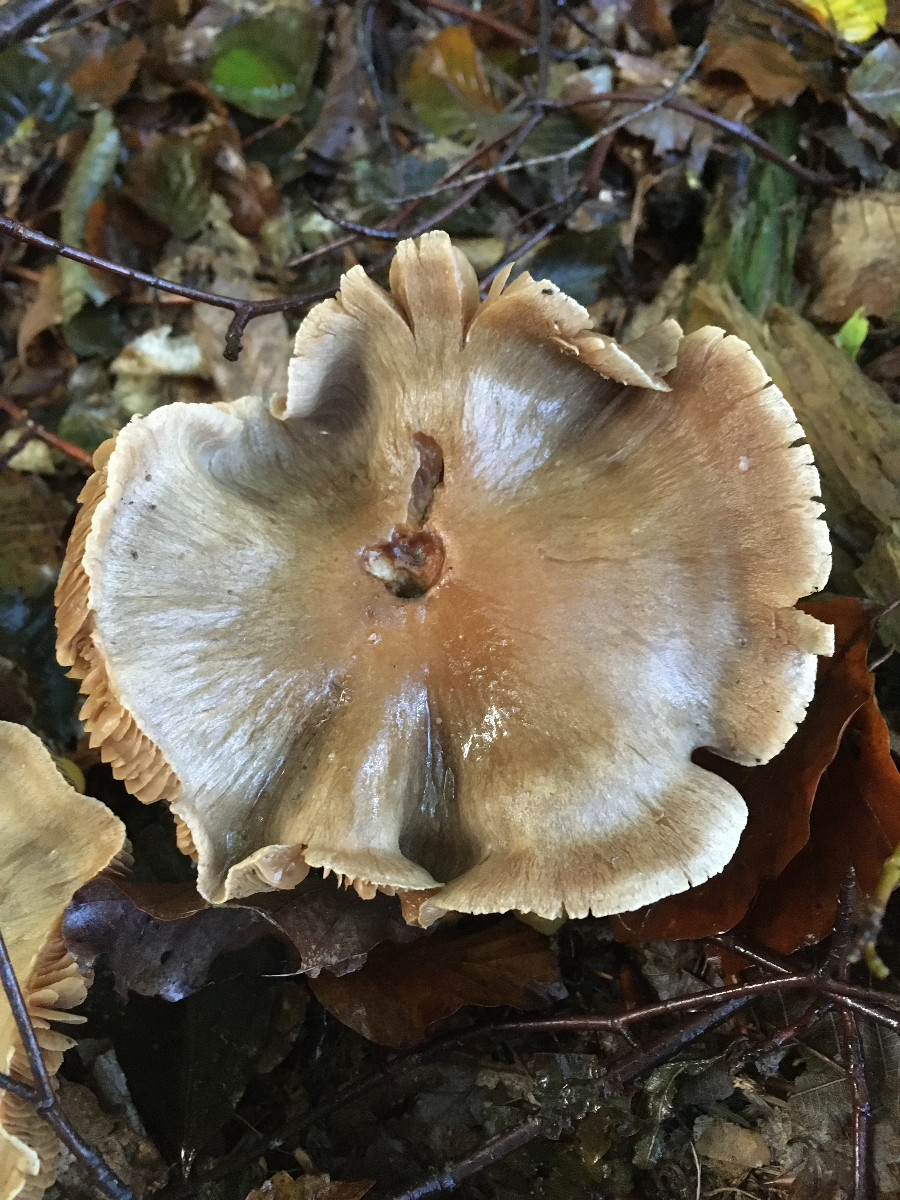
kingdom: Fungi
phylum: Basidiomycota
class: Agaricomycetes
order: Agaricales
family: Cortinariaceae
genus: Cortinarius
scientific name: Cortinarius
